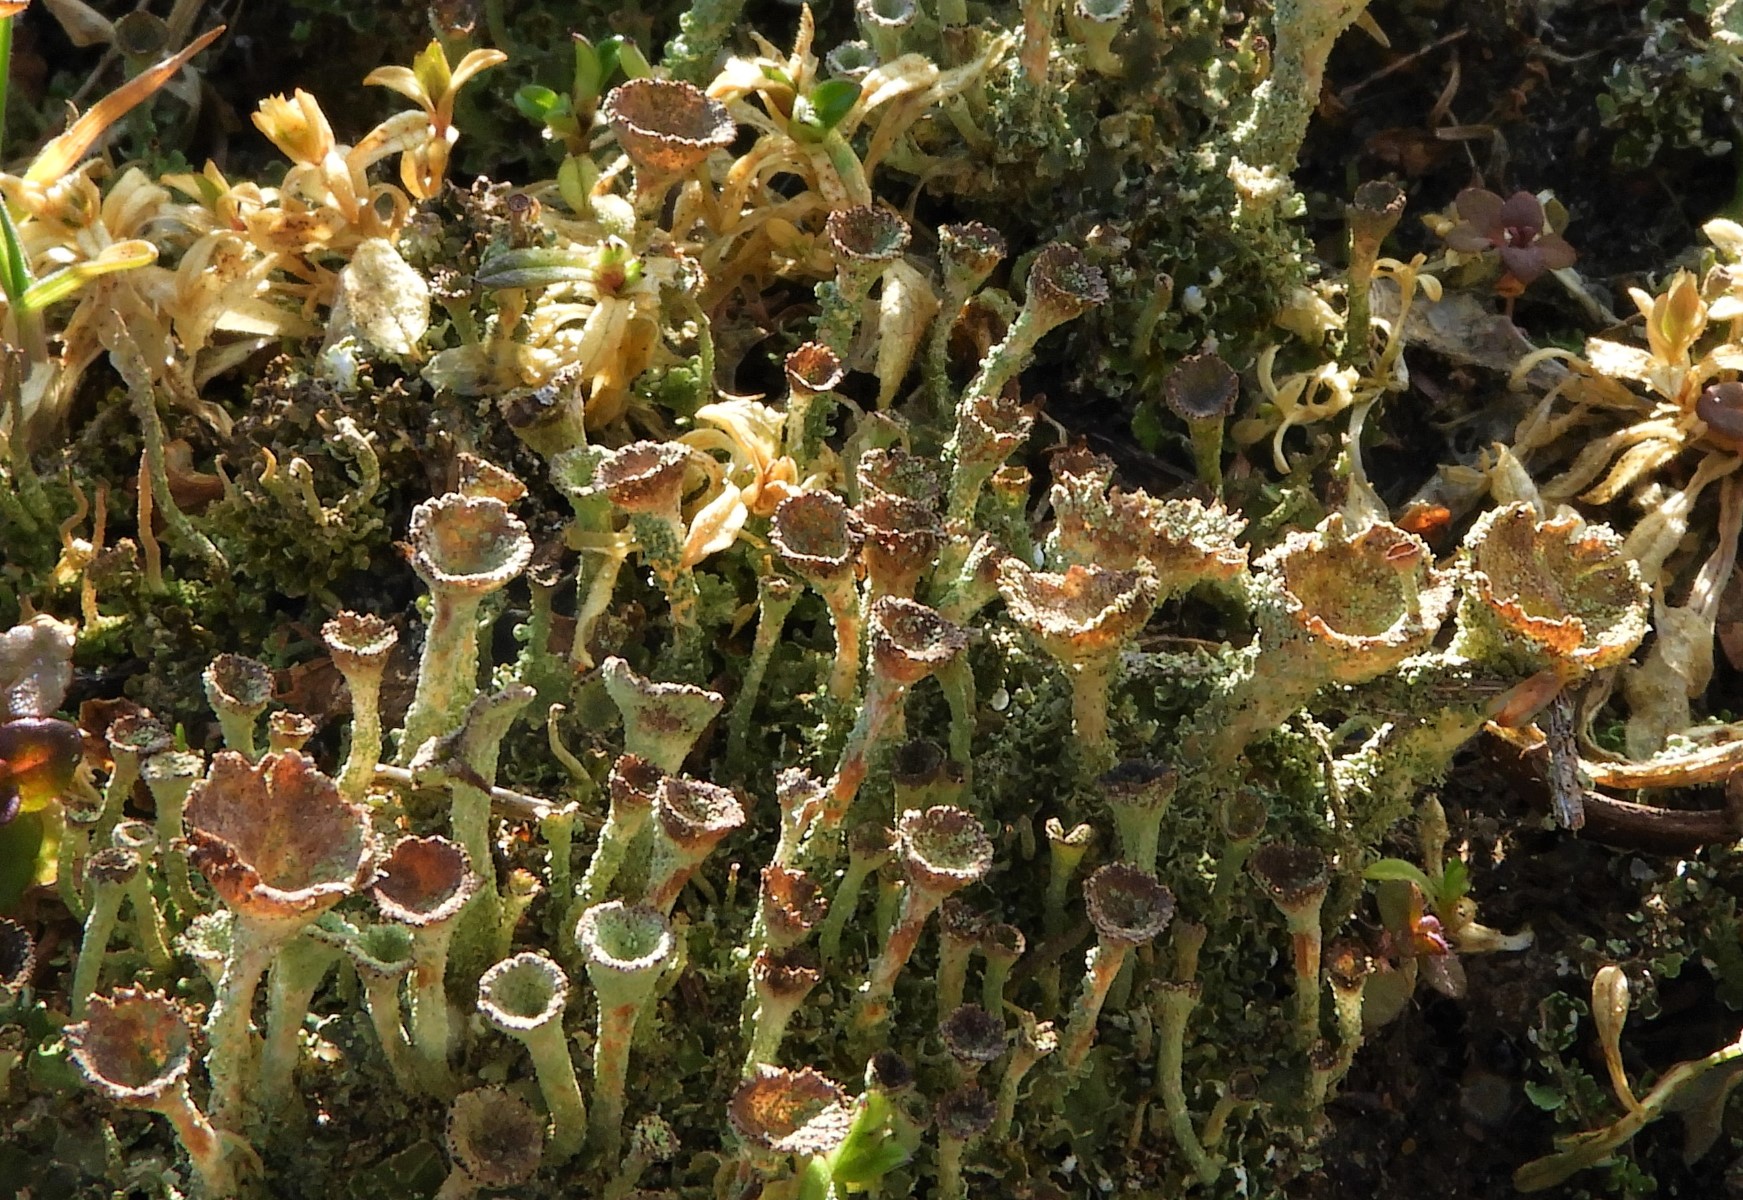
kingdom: Fungi
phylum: Ascomycota
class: Lecanoromycetes
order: Lecanorales
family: Cladoniaceae
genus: Cladonia
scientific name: Cladonia
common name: brungrøn bægerlav
